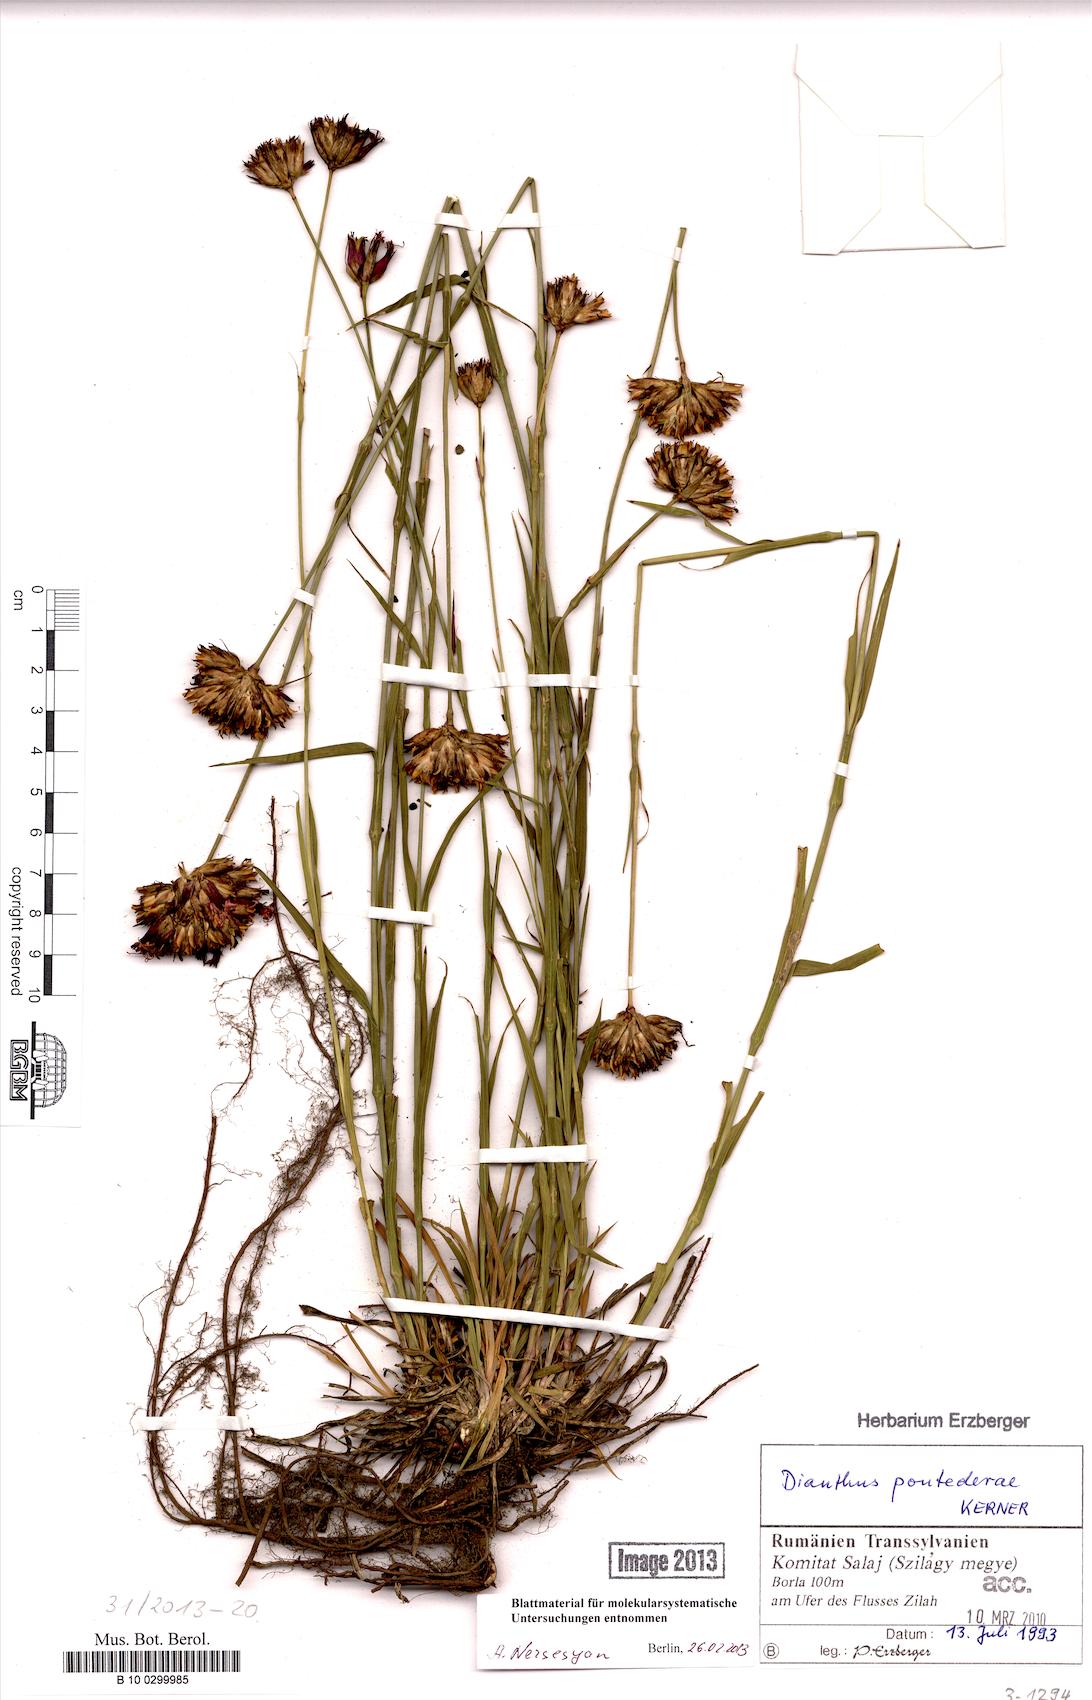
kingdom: Plantae
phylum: Tracheophyta
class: Magnoliopsida
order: Caryophyllales
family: Caryophyllaceae
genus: Dianthus
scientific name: Dianthus pontederae
